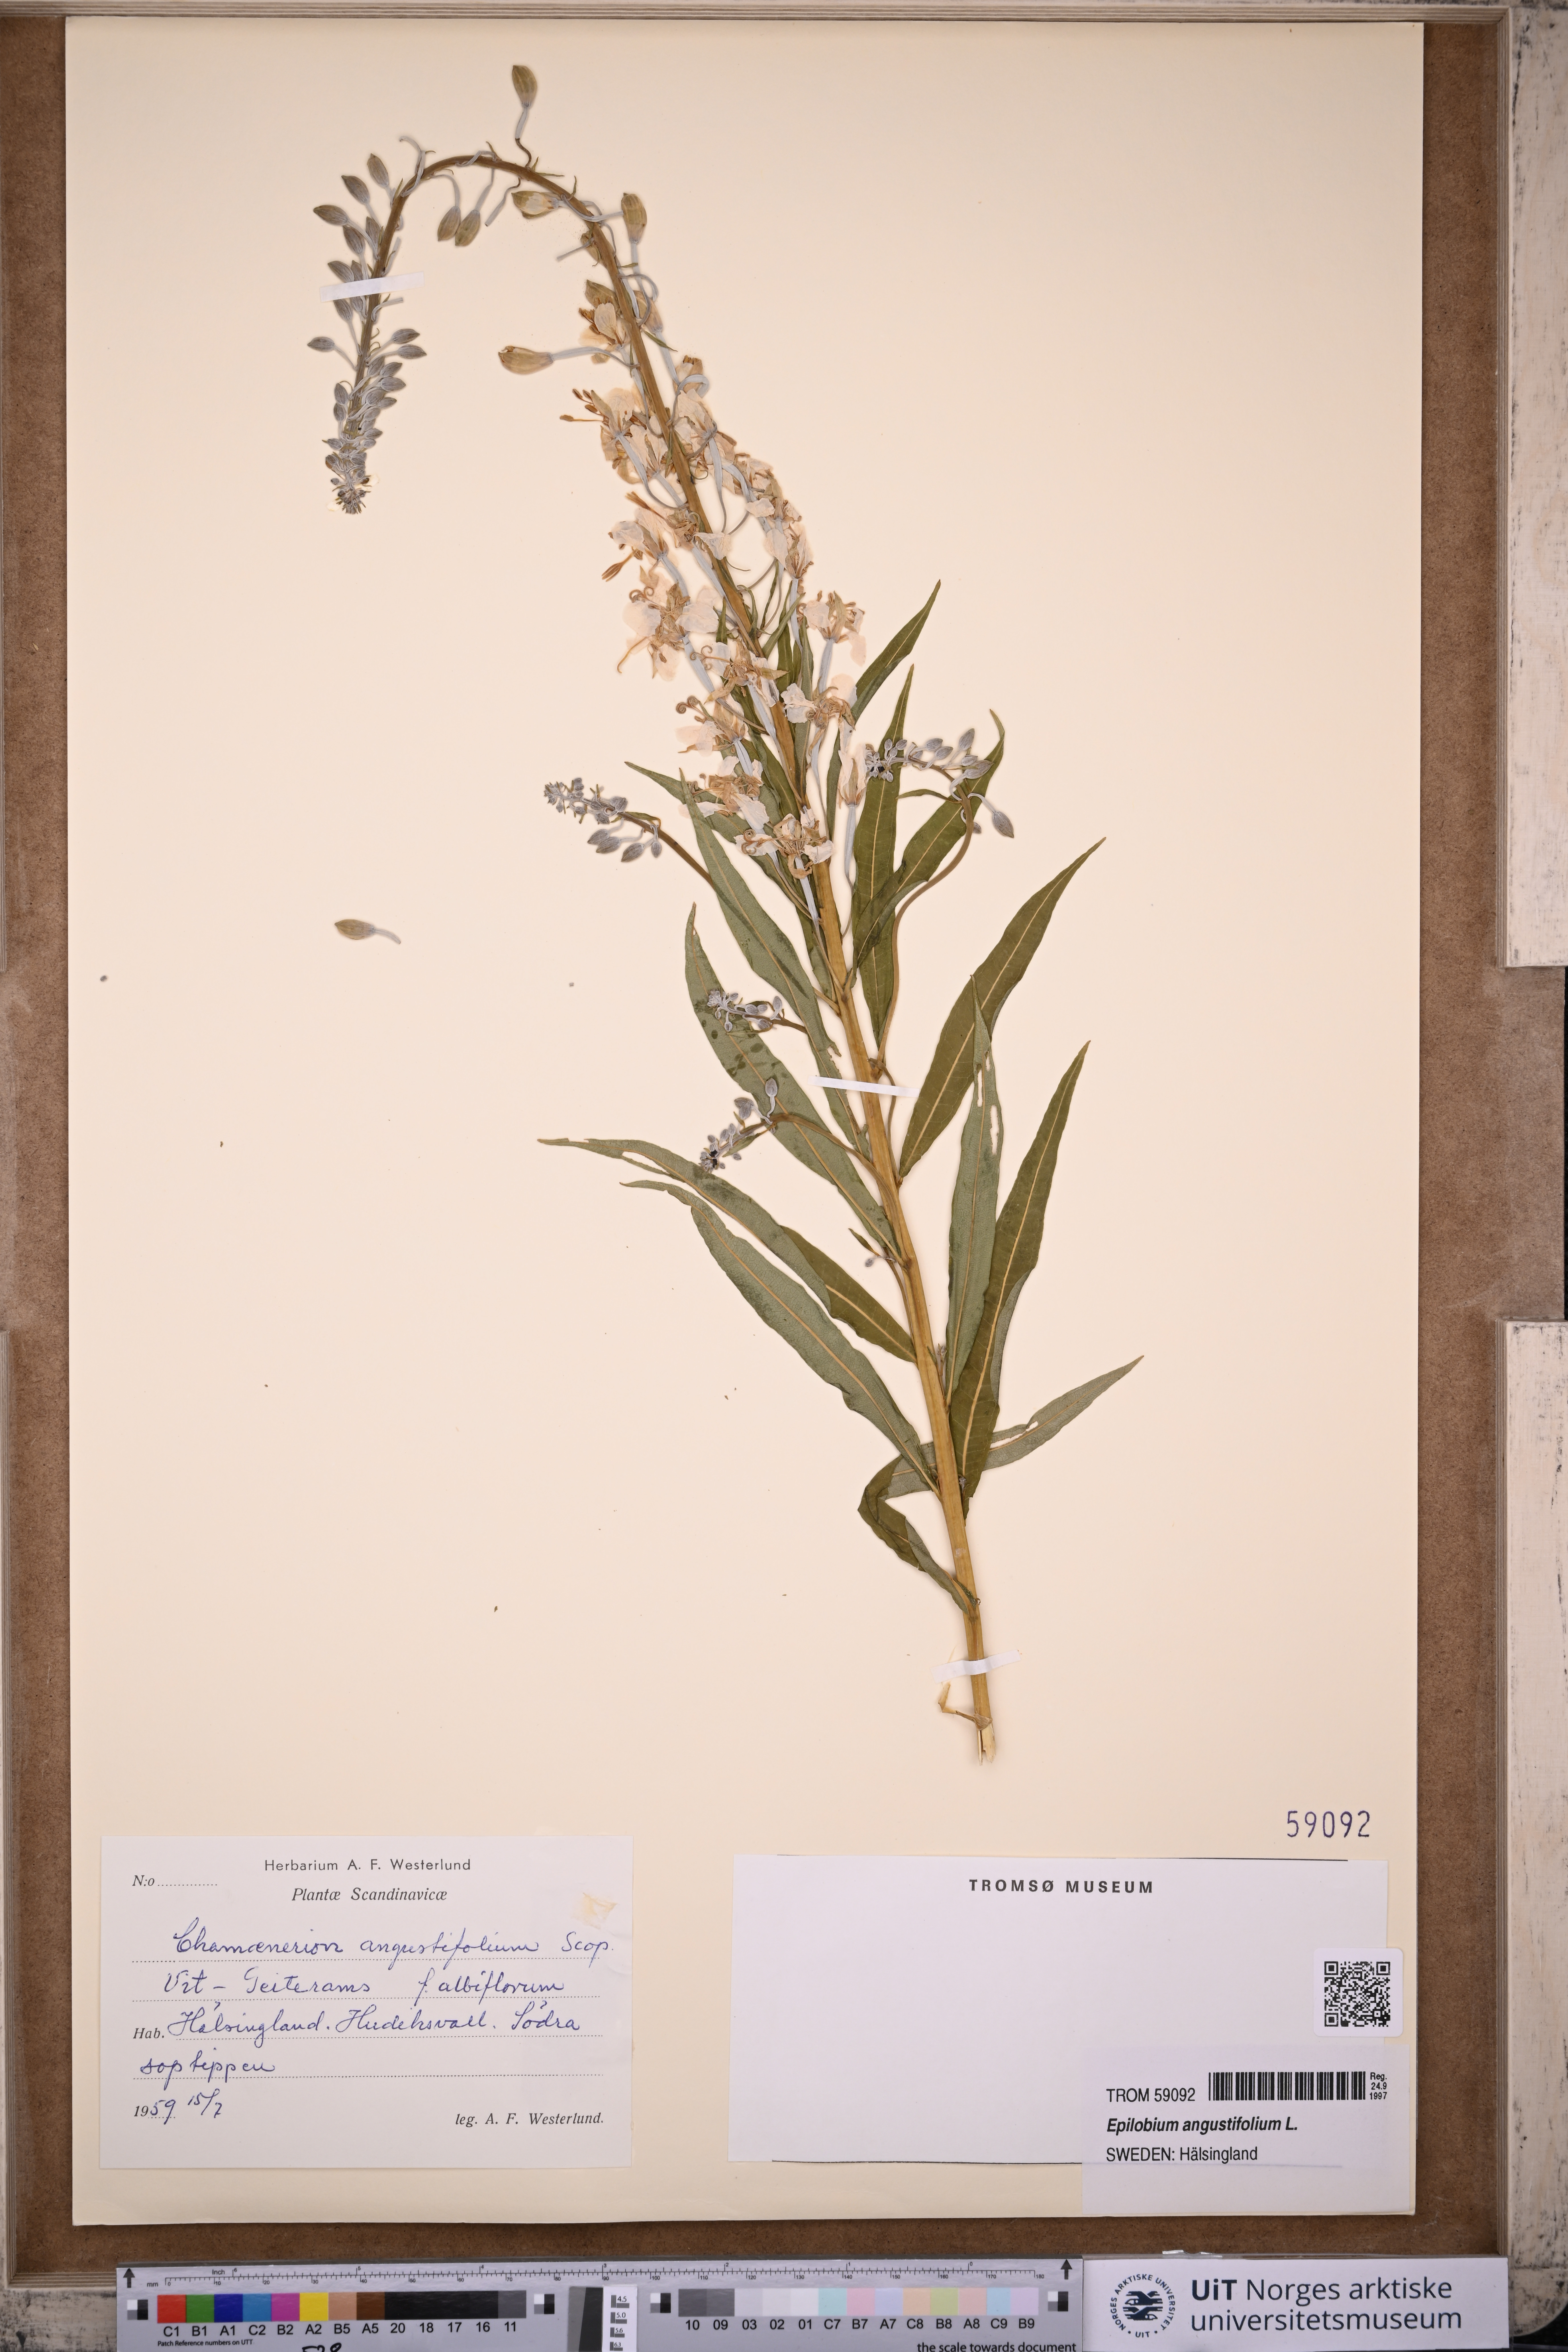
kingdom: Plantae
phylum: Tracheophyta
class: Magnoliopsida
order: Myrtales
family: Onagraceae
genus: Chamaenerion
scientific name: Chamaenerion angustifolium
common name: Fireweed
